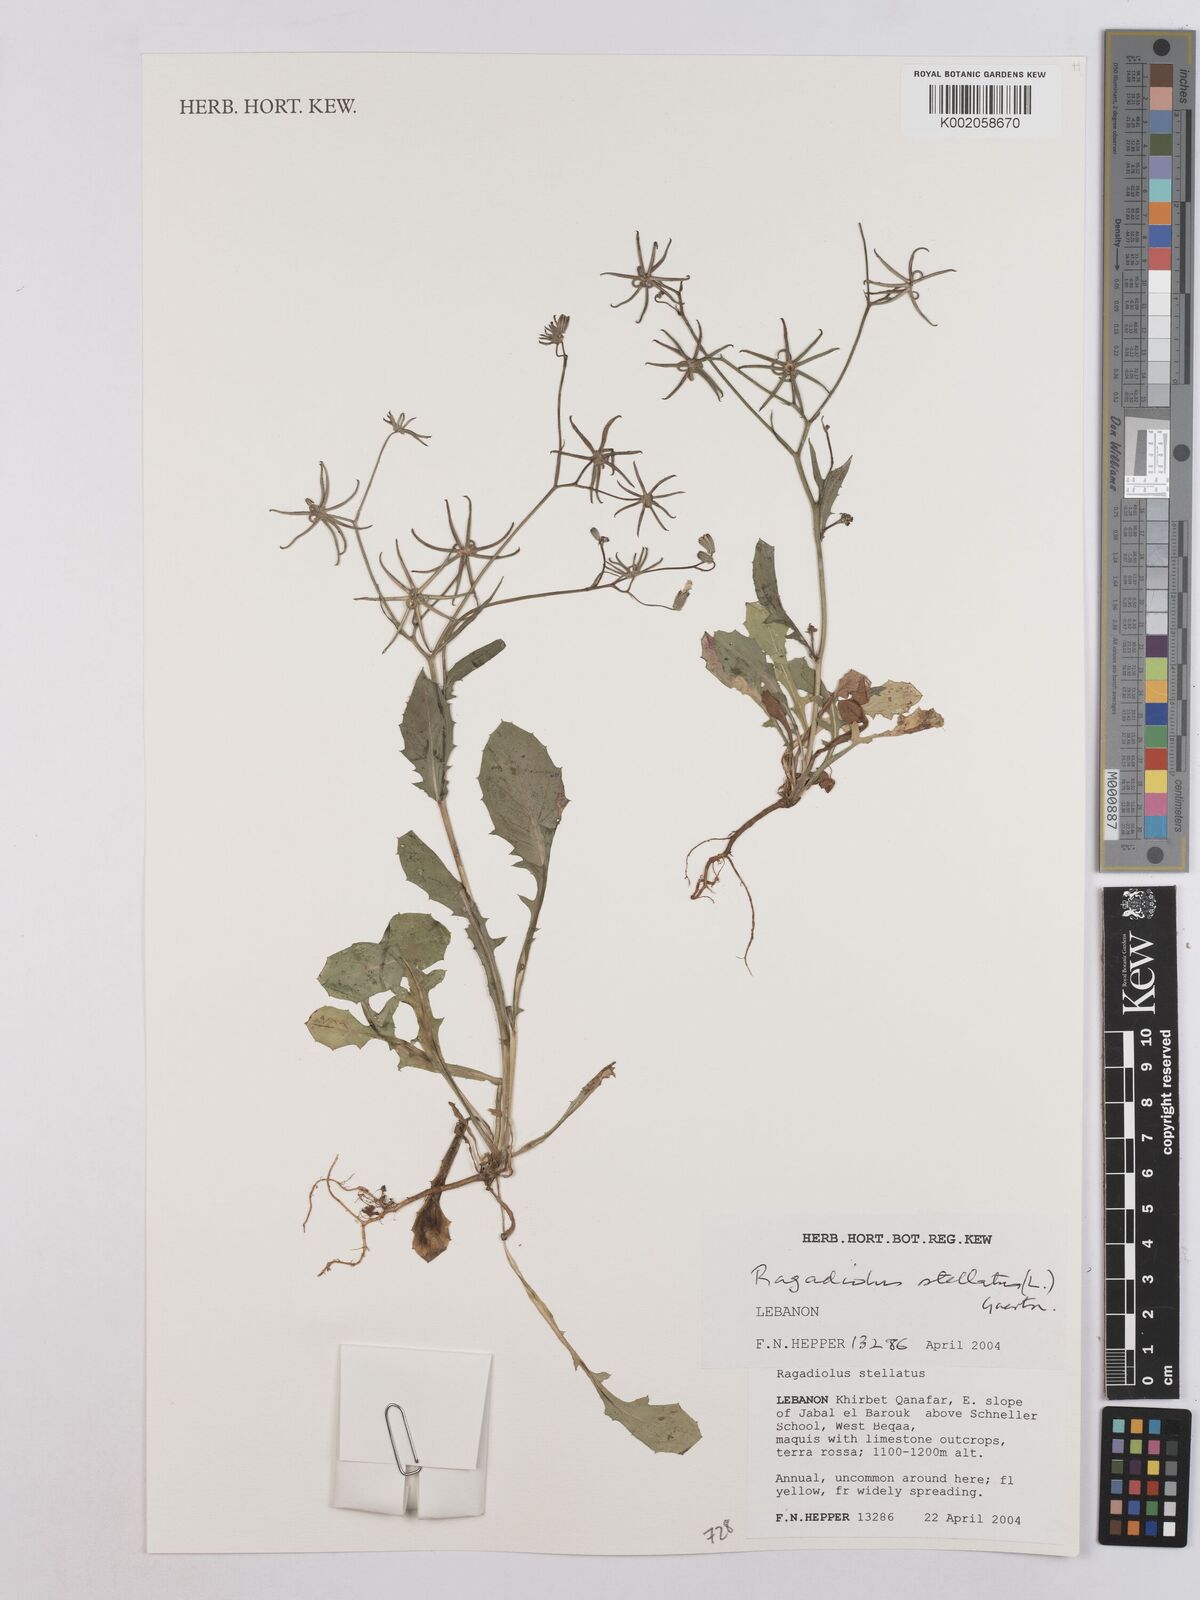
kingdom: Plantae
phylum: Tracheophyta
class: Magnoliopsida
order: Asterales
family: Asteraceae
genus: Rhagadiolus
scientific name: Rhagadiolus stellatus
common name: Star hawkbit
